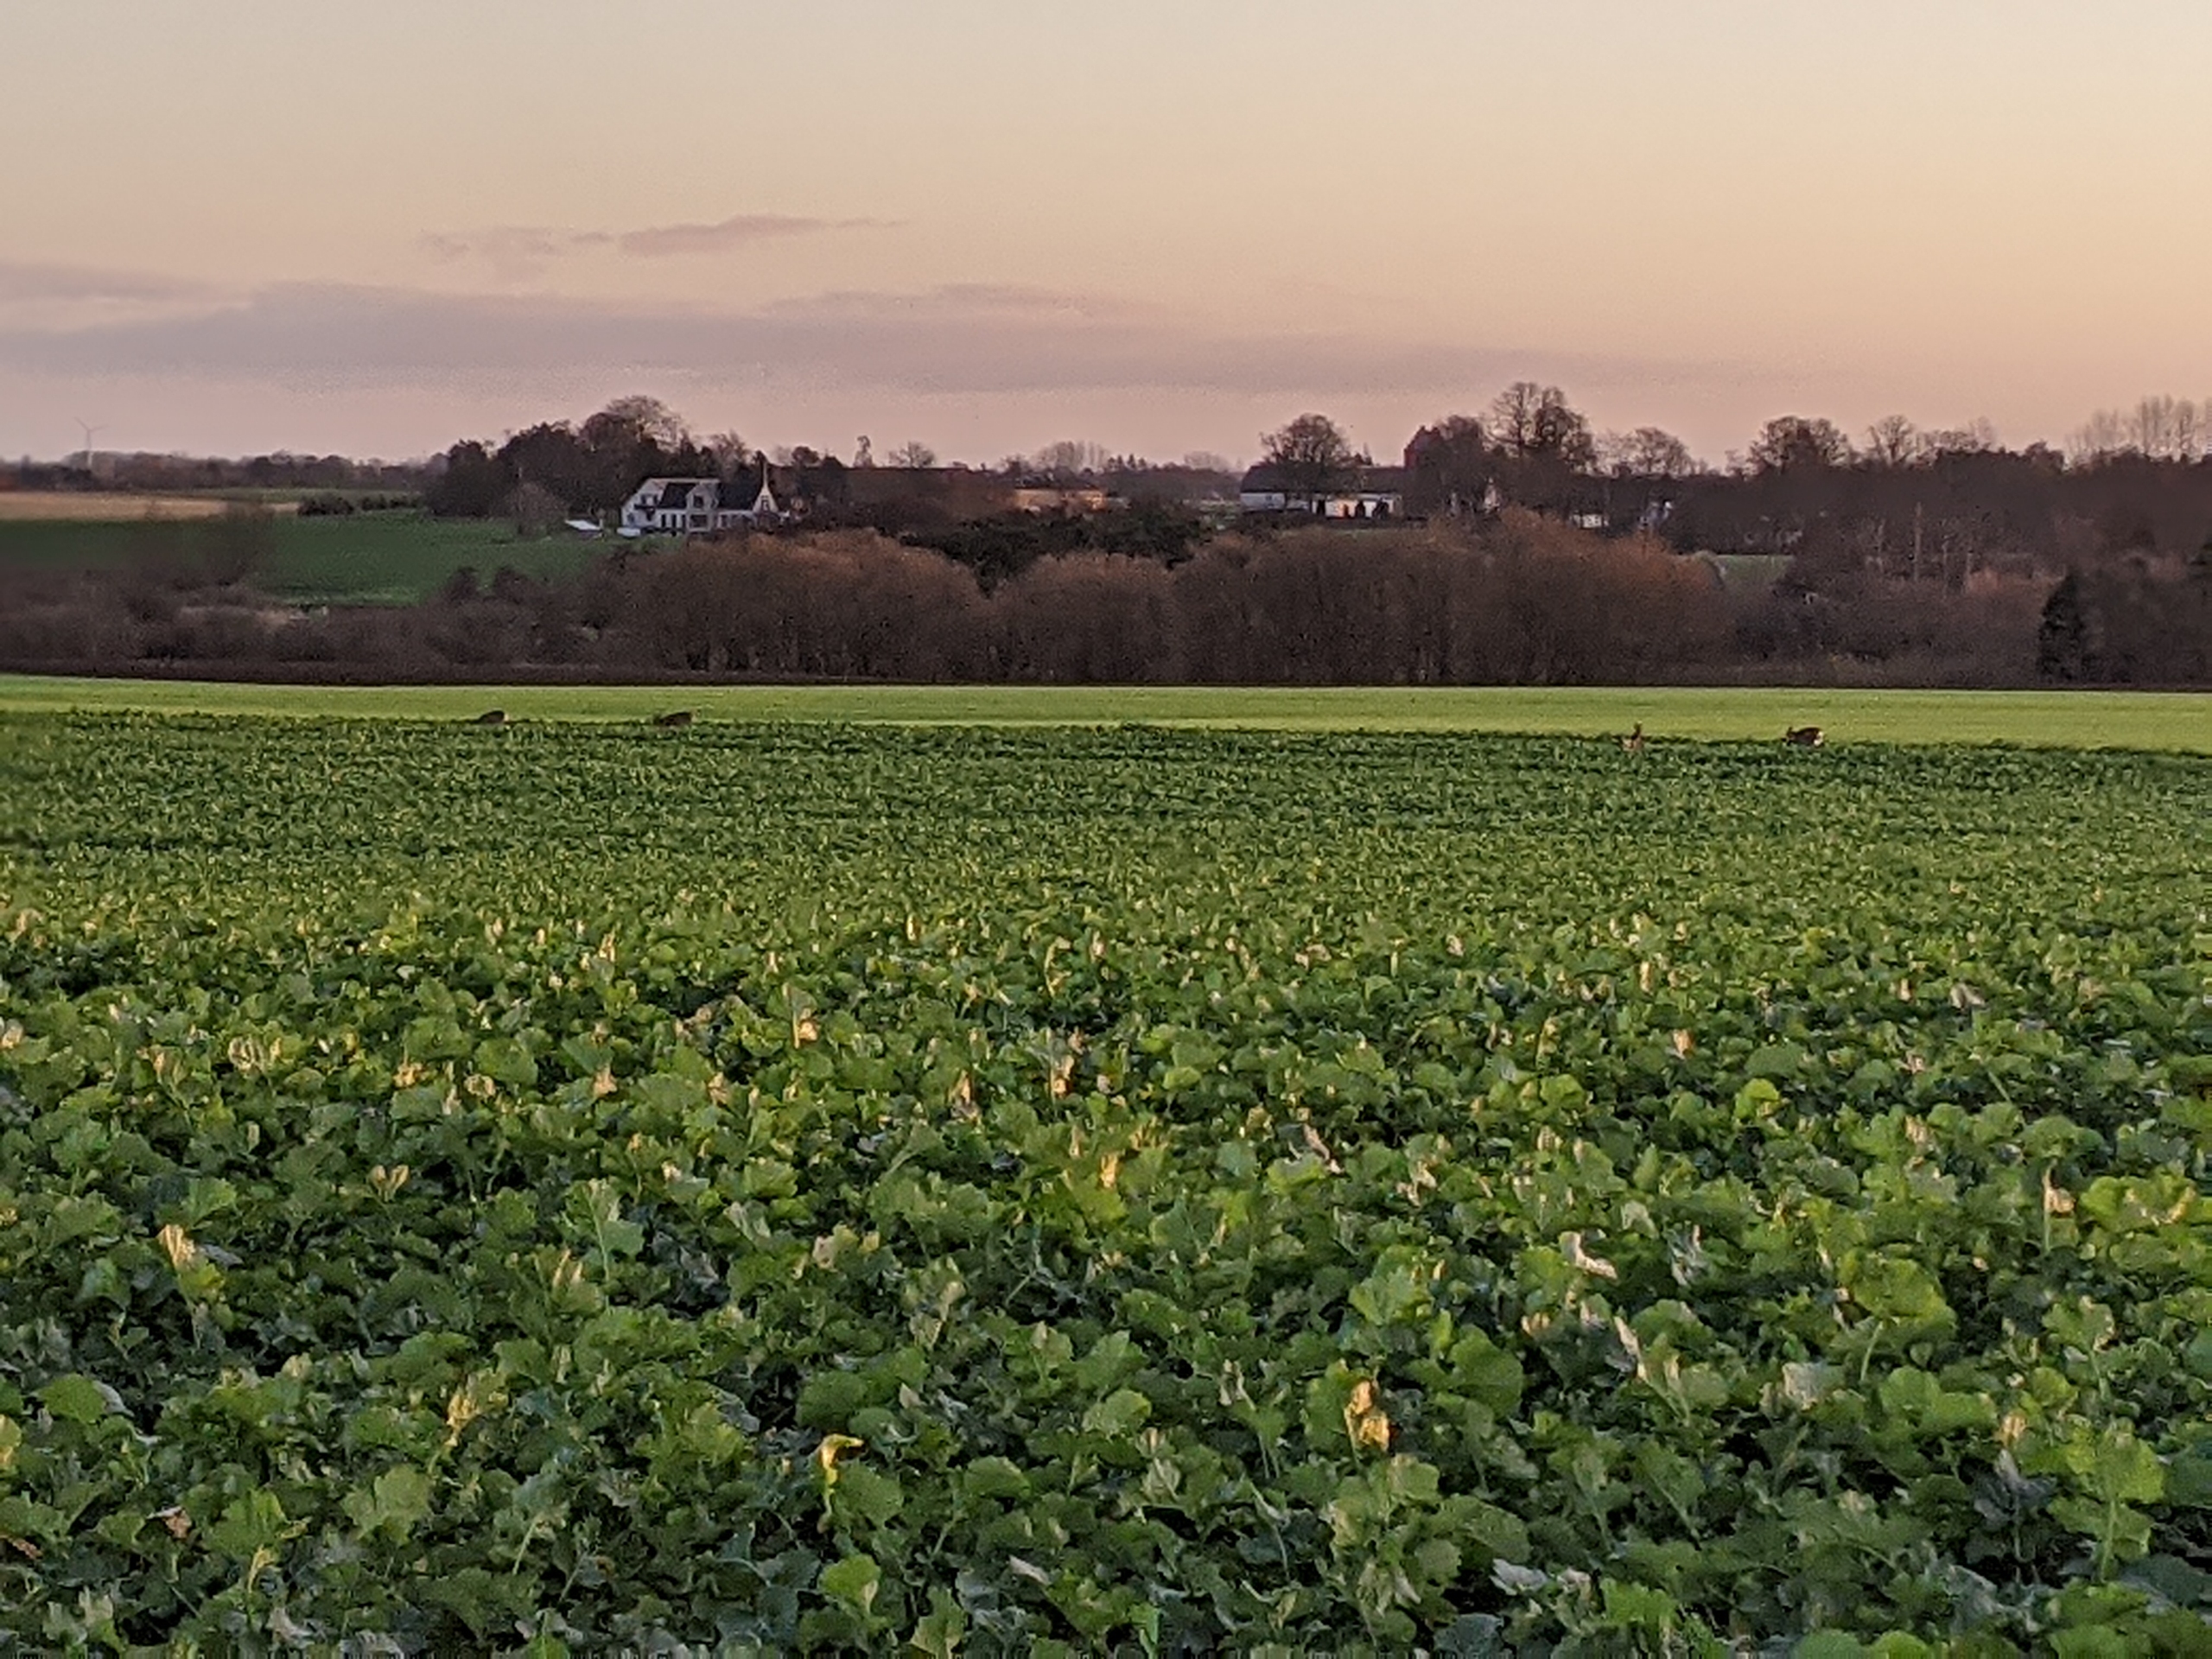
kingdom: Animalia
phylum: Chordata
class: Mammalia
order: Artiodactyla
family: Cervidae
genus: Capreolus
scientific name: Capreolus capreolus
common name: Rådyr
